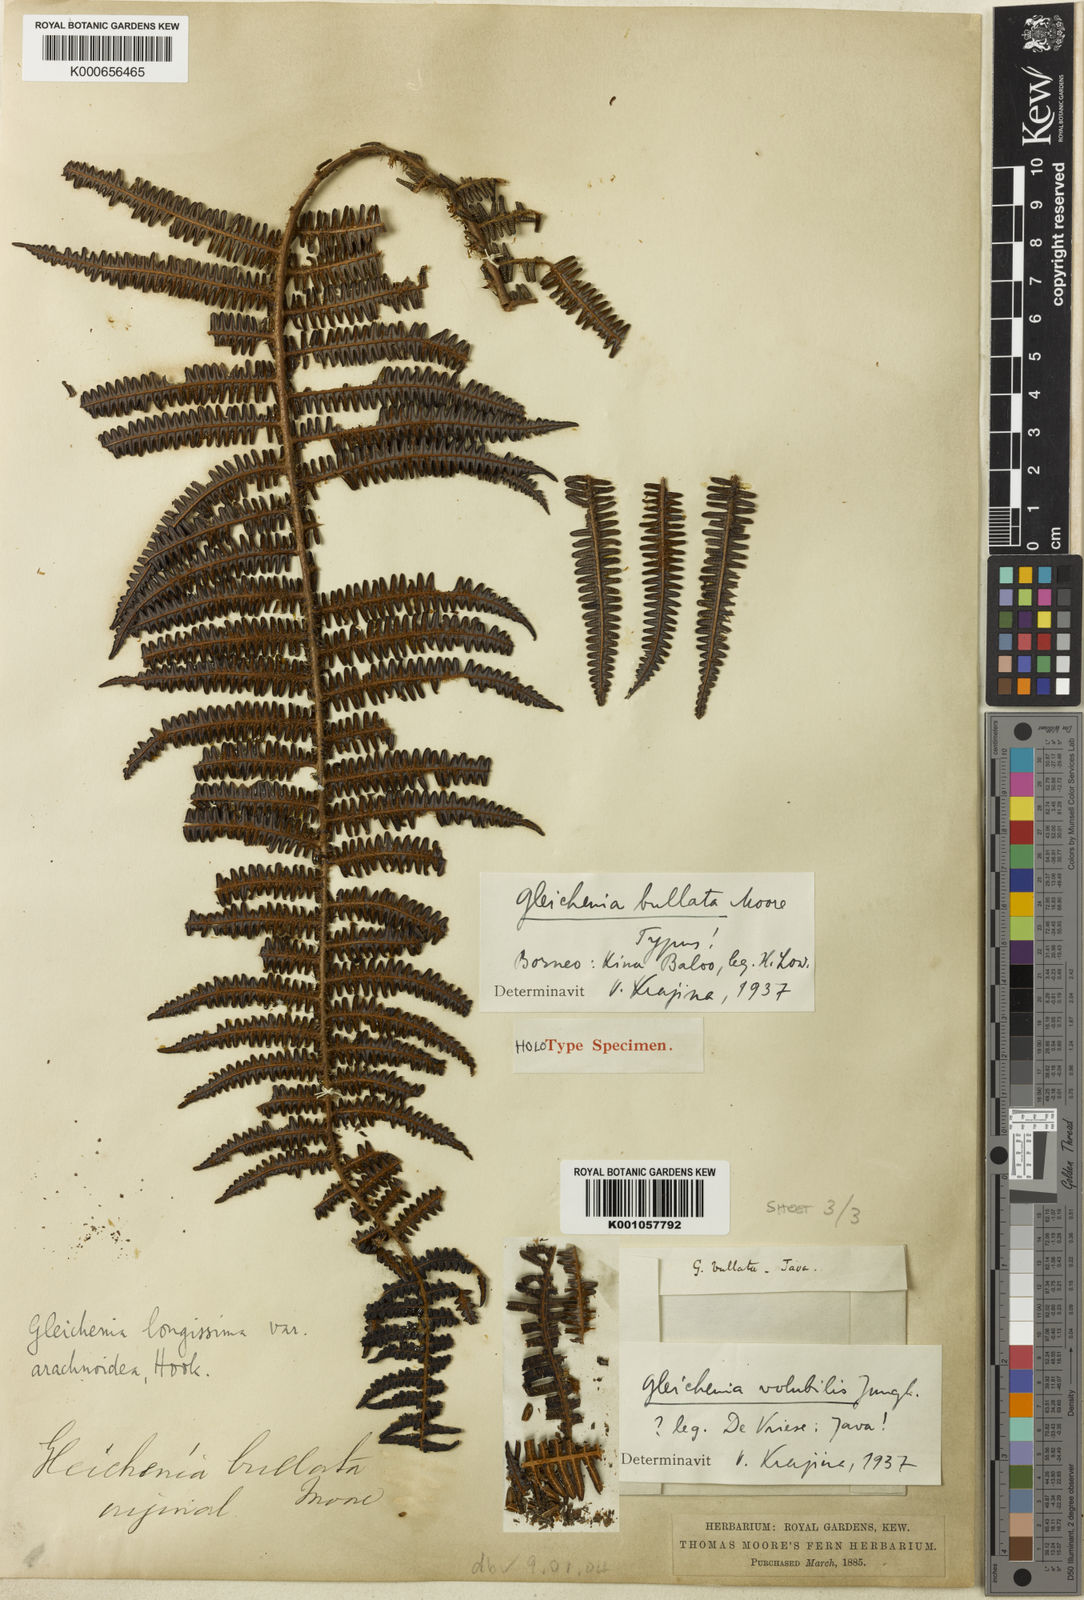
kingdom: Plantae
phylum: Tracheophyta
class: Polypodiopsida
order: Gleicheniales
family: Gleicheniaceae
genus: Diplopterygium
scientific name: Diplopterygium bullatum
